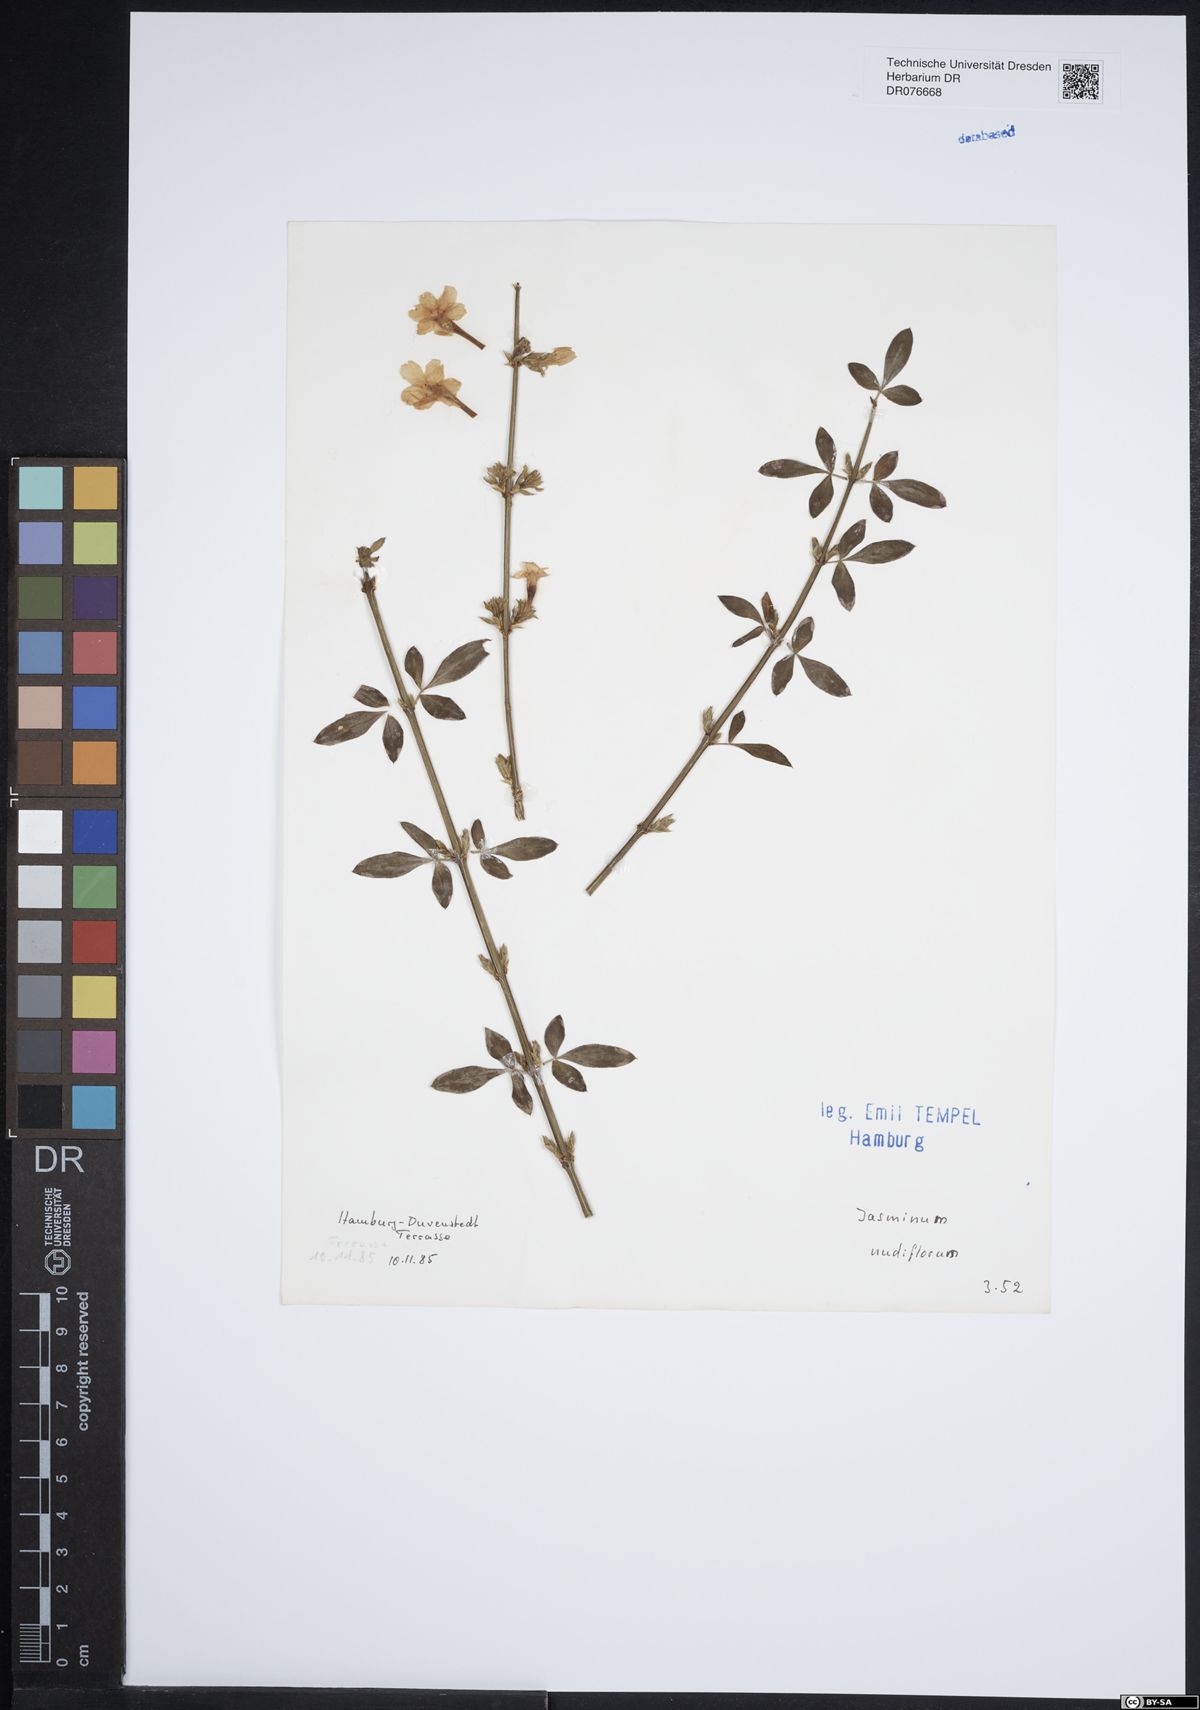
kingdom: Plantae
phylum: Tracheophyta
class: Magnoliopsida
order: Lamiales
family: Oleaceae
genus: Jasminum
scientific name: Jasminum nudiflorum
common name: Winter jasmine
